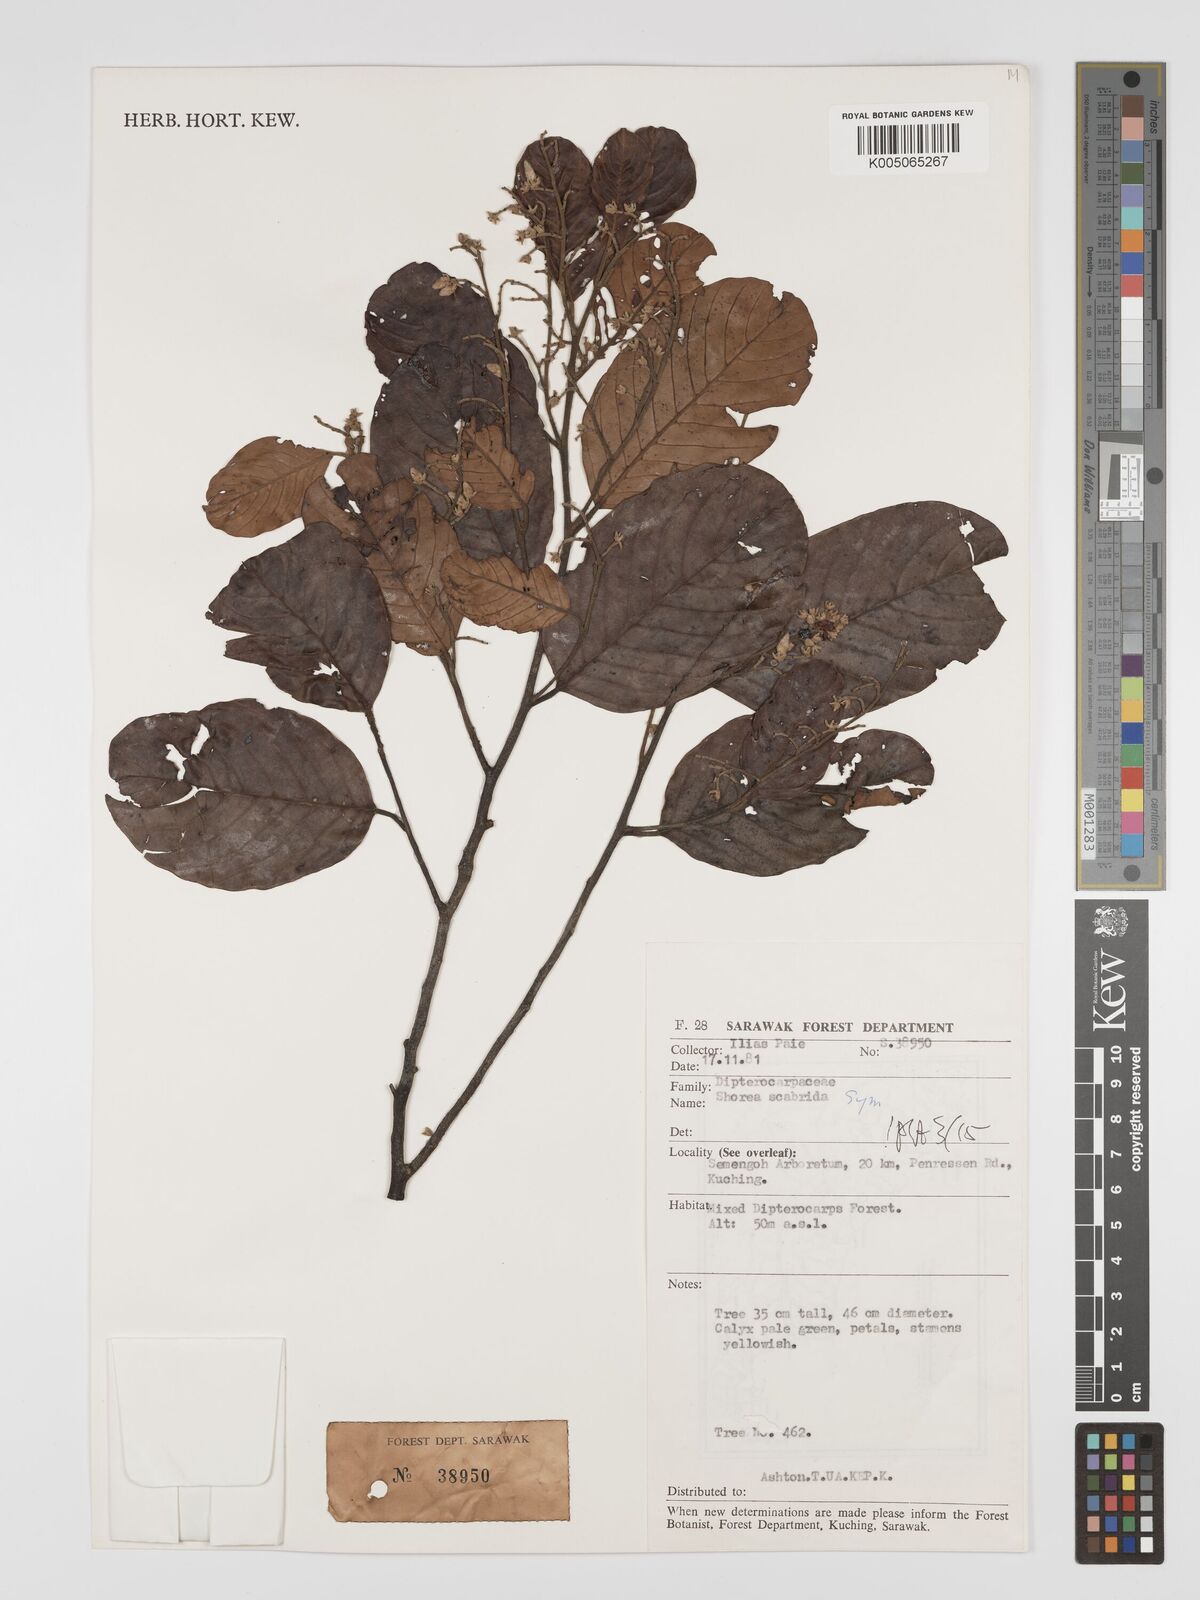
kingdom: Plantae
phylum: Tracheophyta
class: Magnoliopsida
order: Malvales
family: Dipterocarpaceae
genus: Shorea
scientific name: Shorea scabrida
